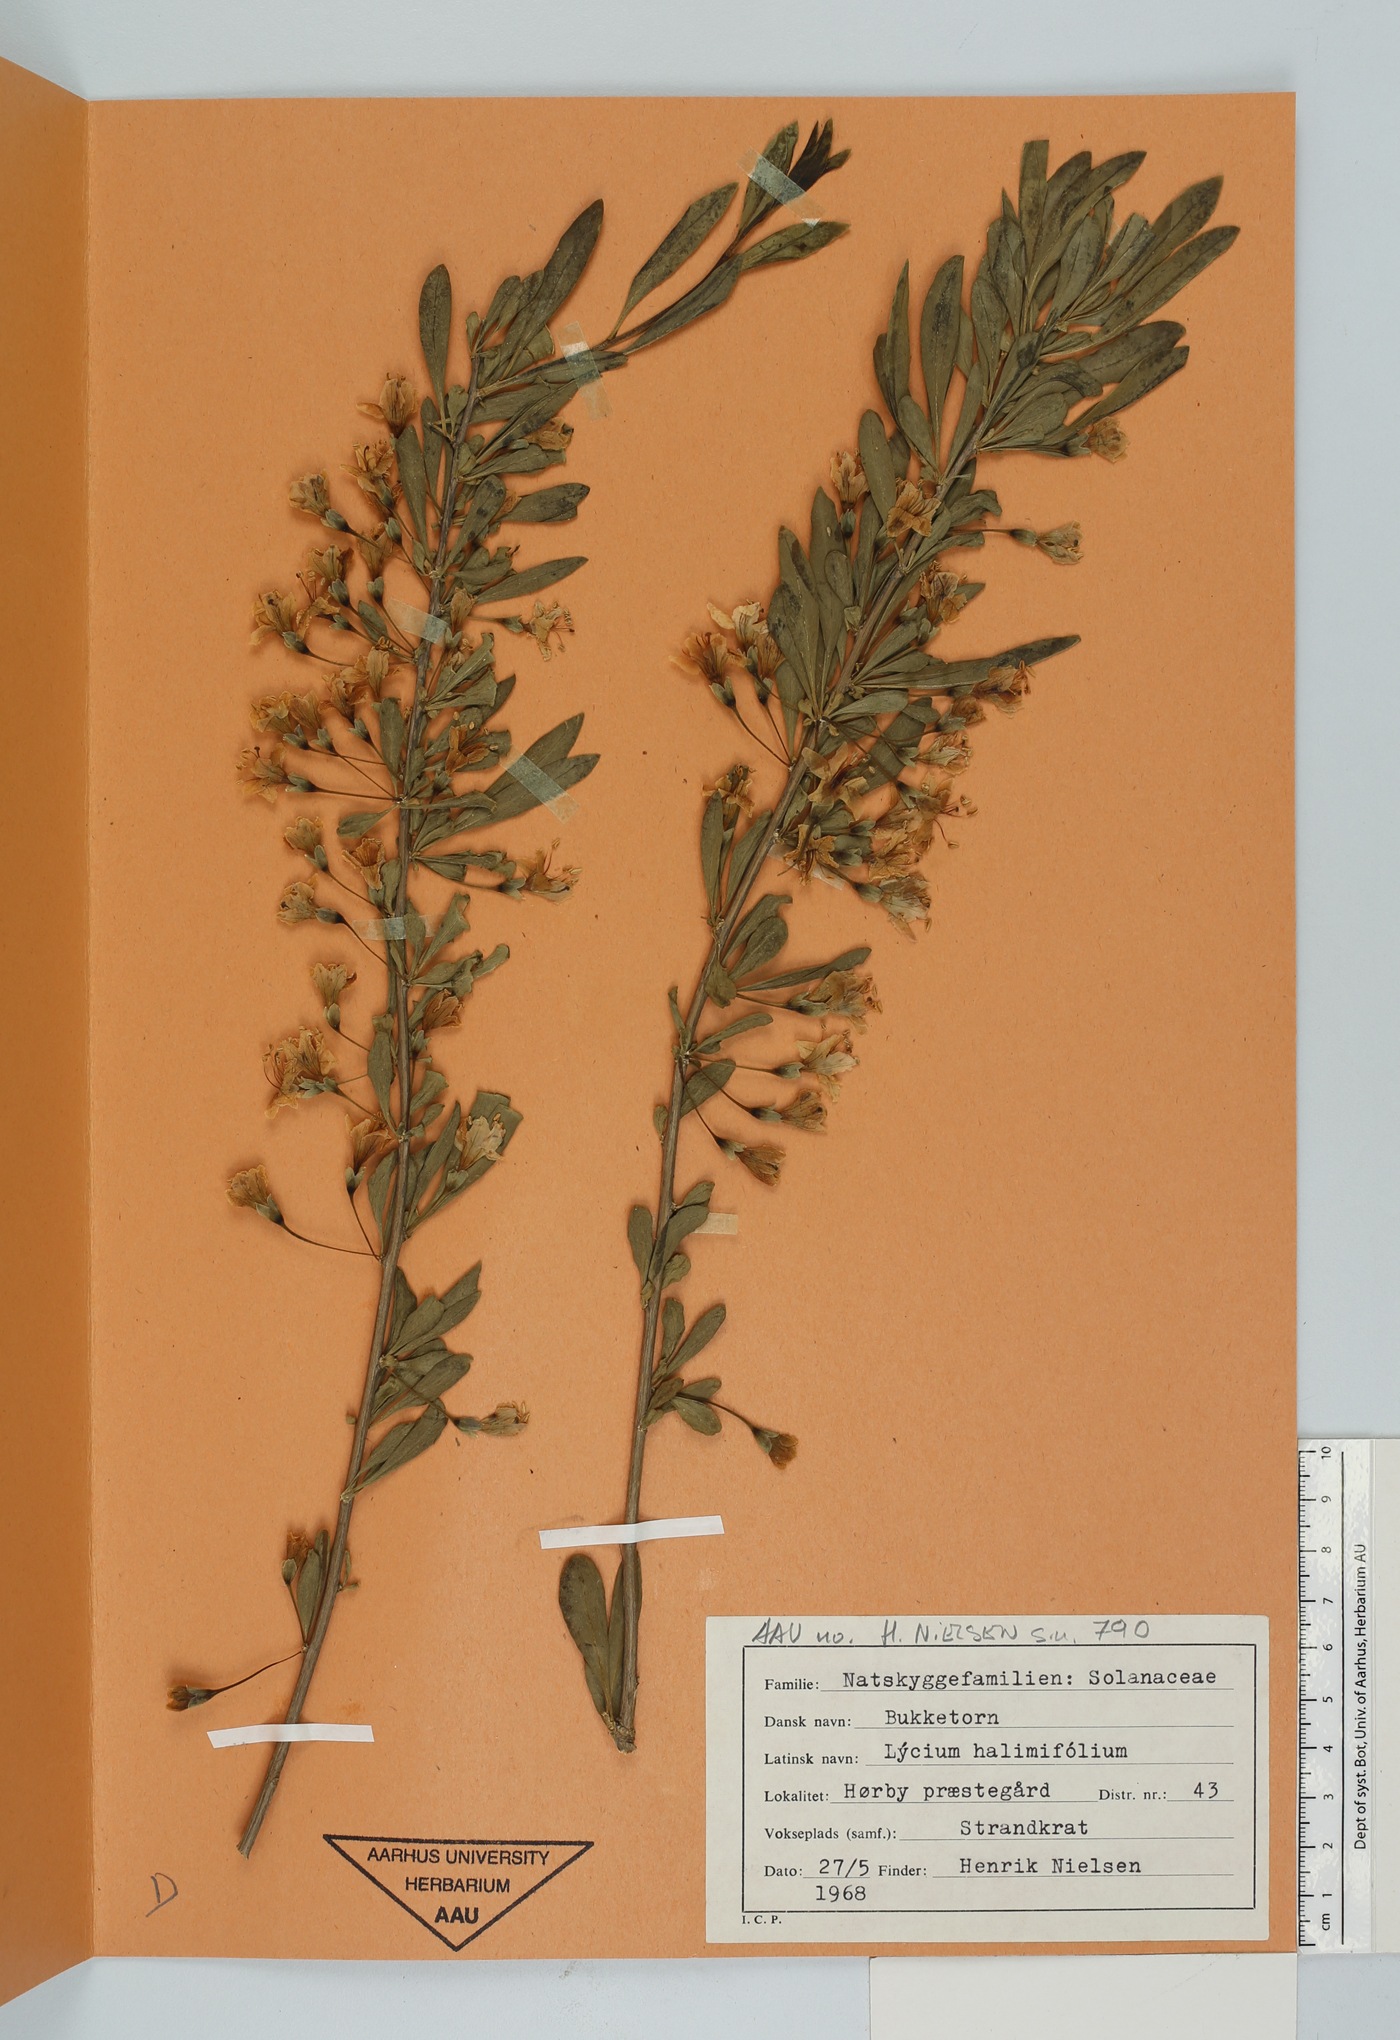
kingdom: Plantae
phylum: Tracheophyta
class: Magnoliopsida
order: Solanales
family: Solanaceae
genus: Lycium
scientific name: Lycium barbarum
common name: Duke of argyll's teaplant
